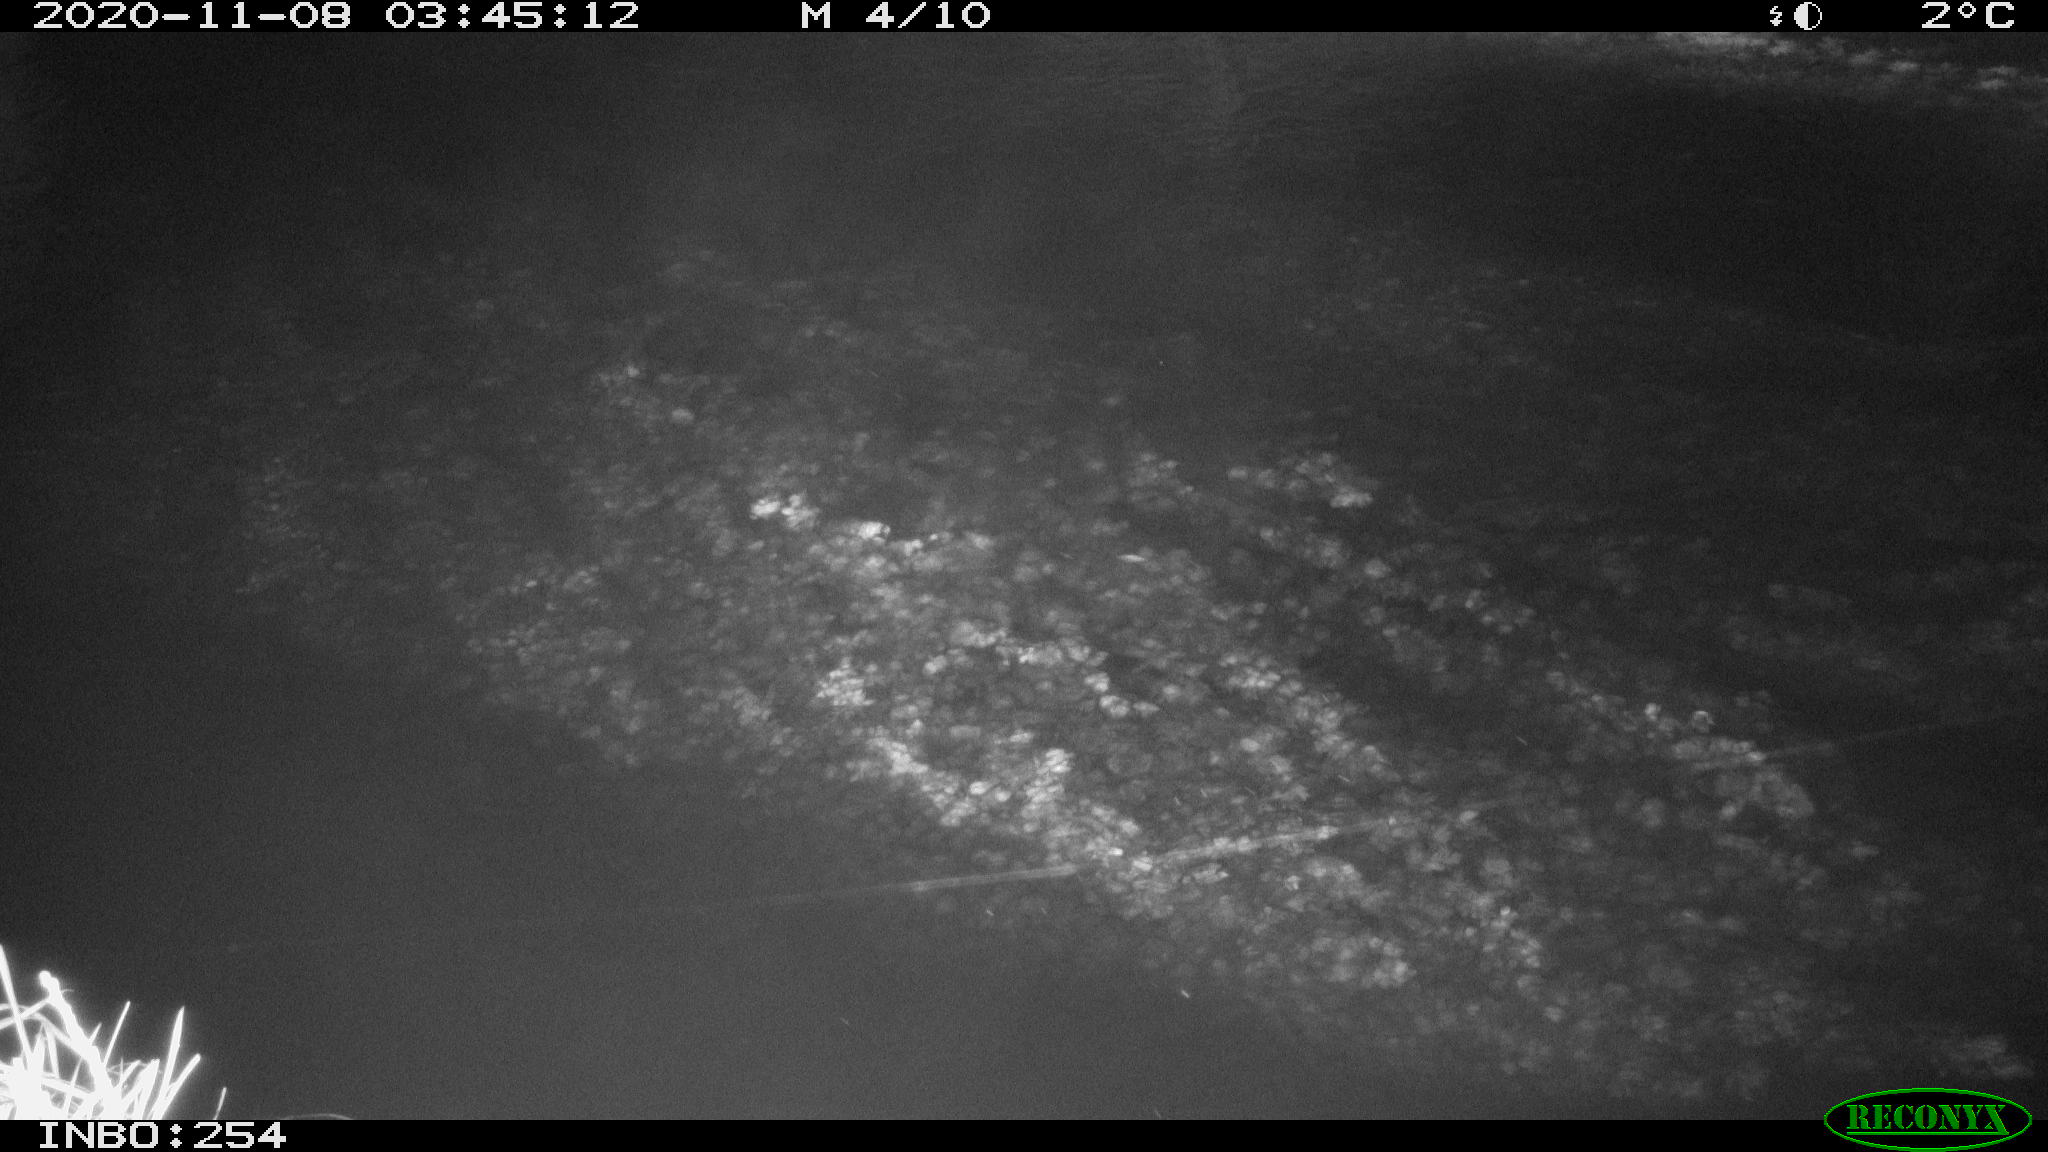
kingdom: Animalia
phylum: Chordata
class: Mammalia
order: Rodentia
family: Cricetidae
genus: Ondatra
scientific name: Ondatra zibethicus
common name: Muskrat
